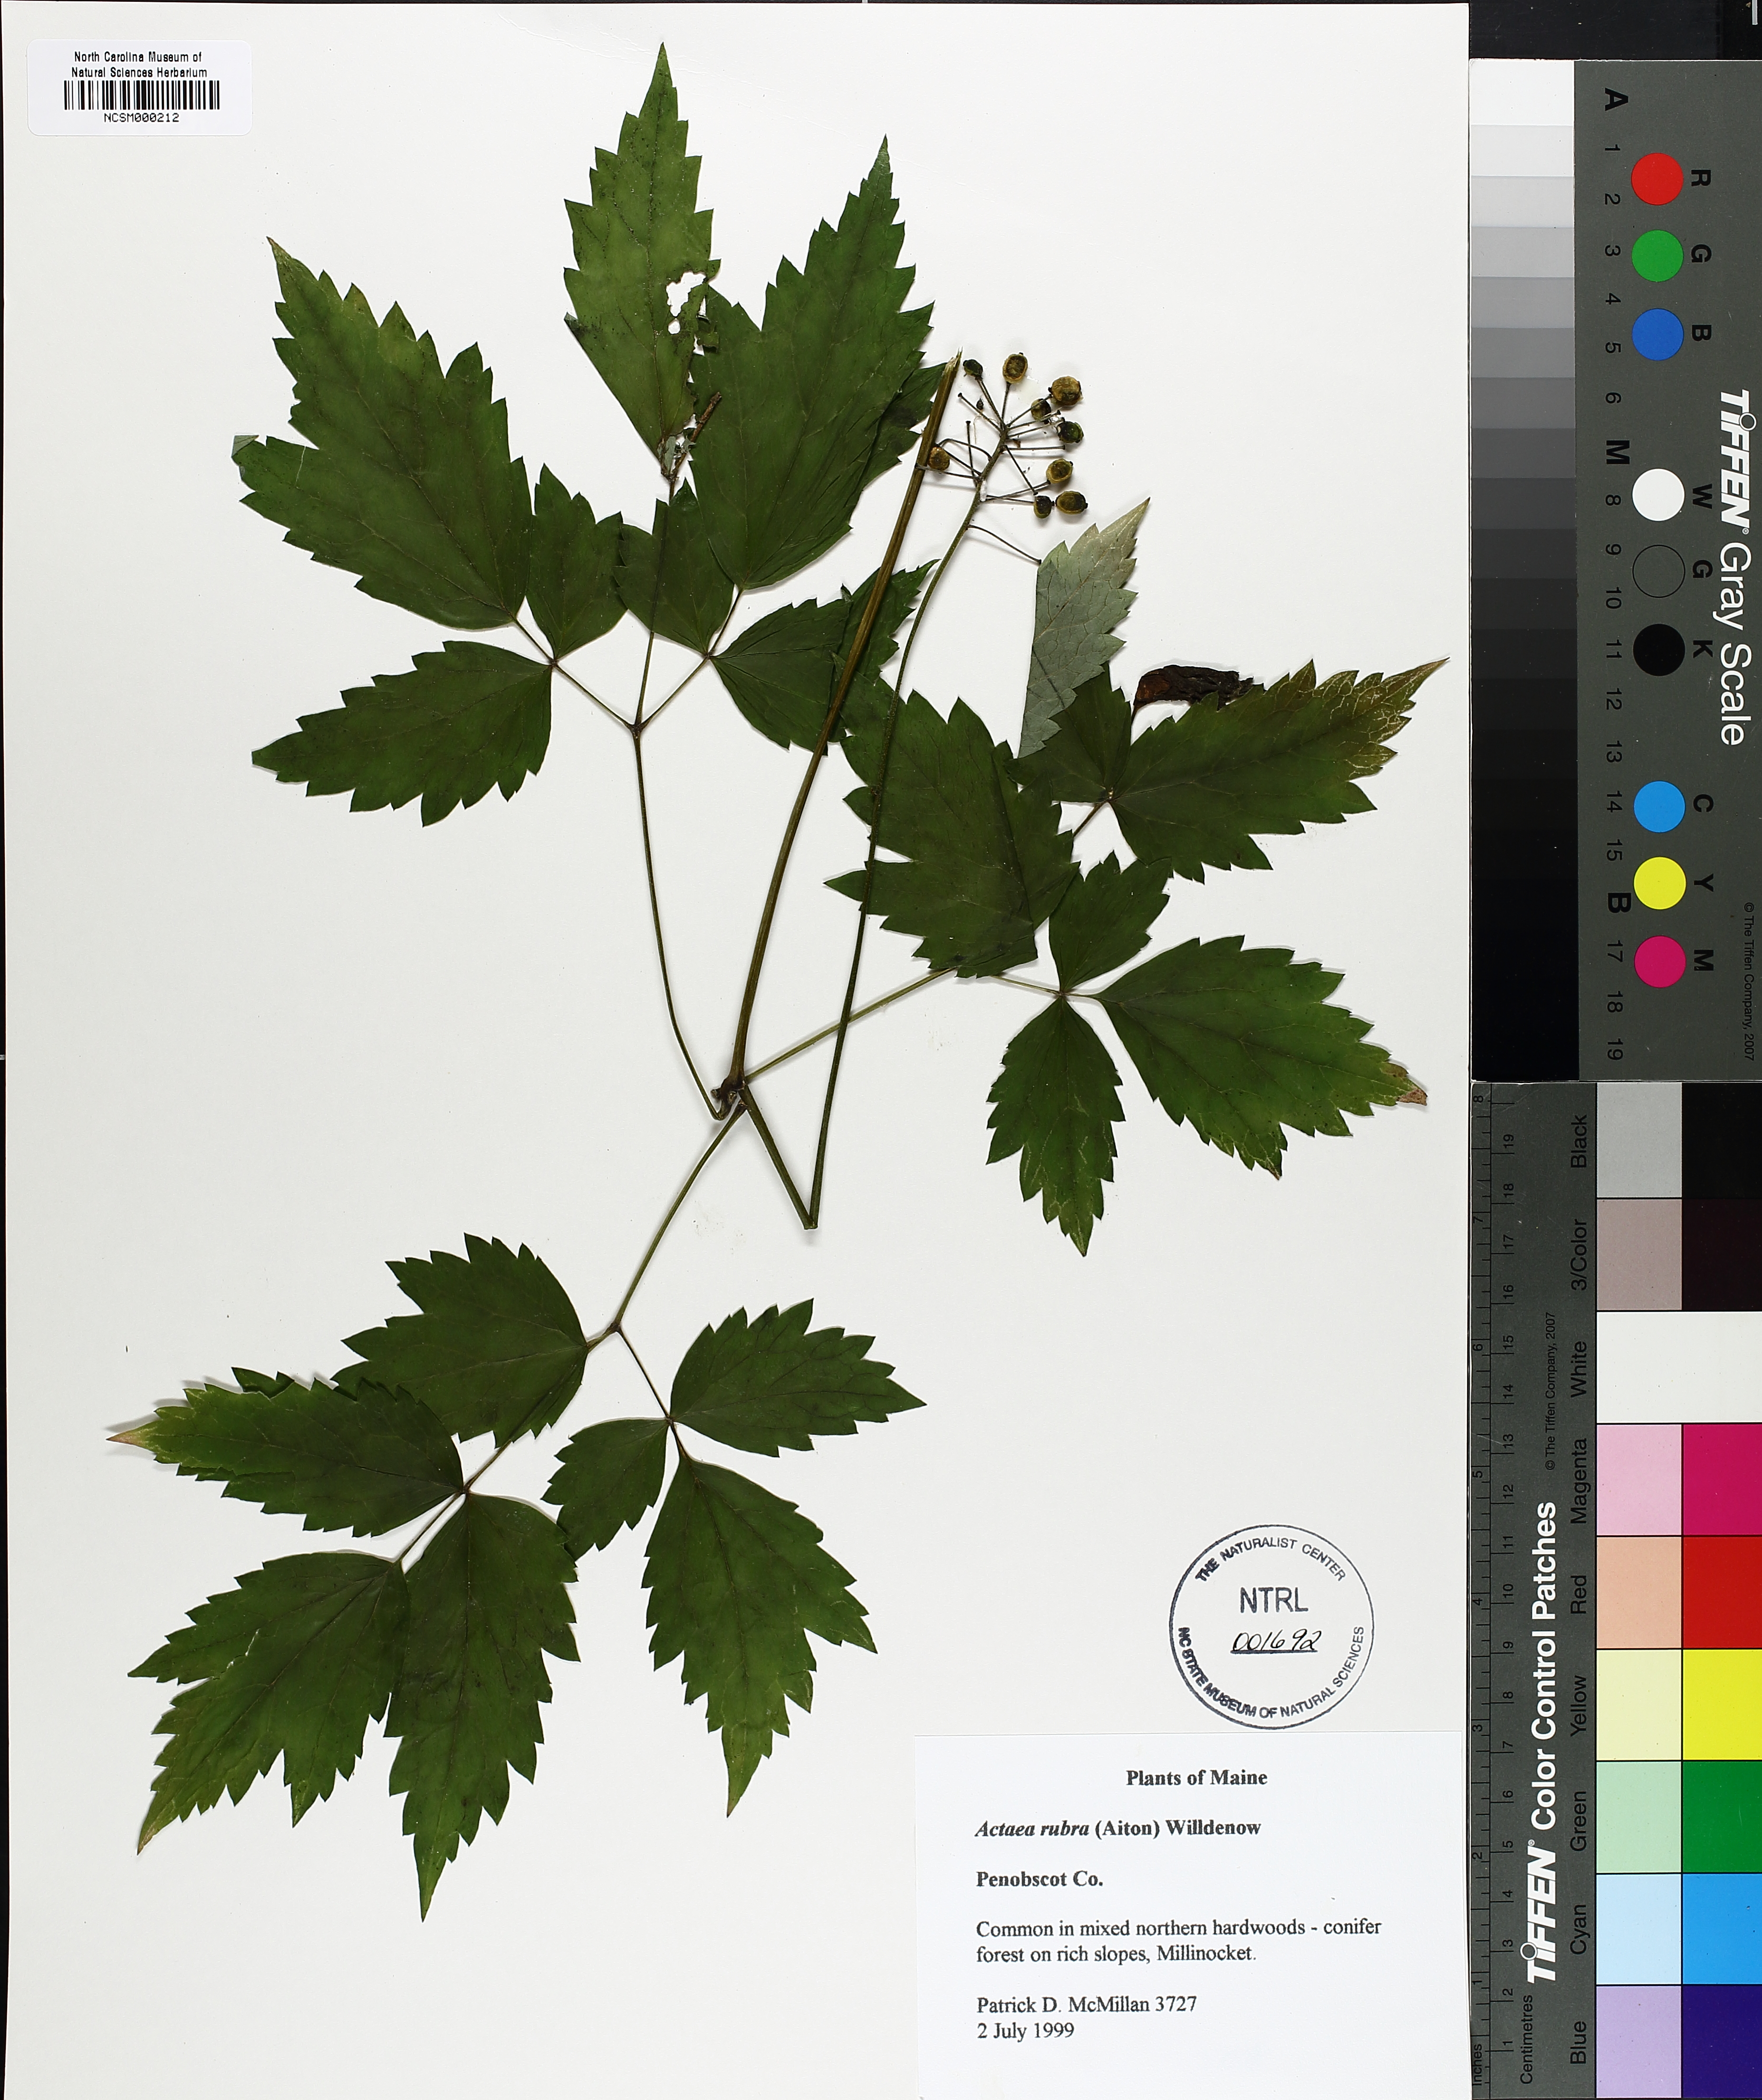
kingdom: Plantae
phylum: Tracheophyta
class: Magnoliopsida
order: Ranunculales
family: Ranunculaceae
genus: Actaea
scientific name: Actaea rubra
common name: Red baneberry
